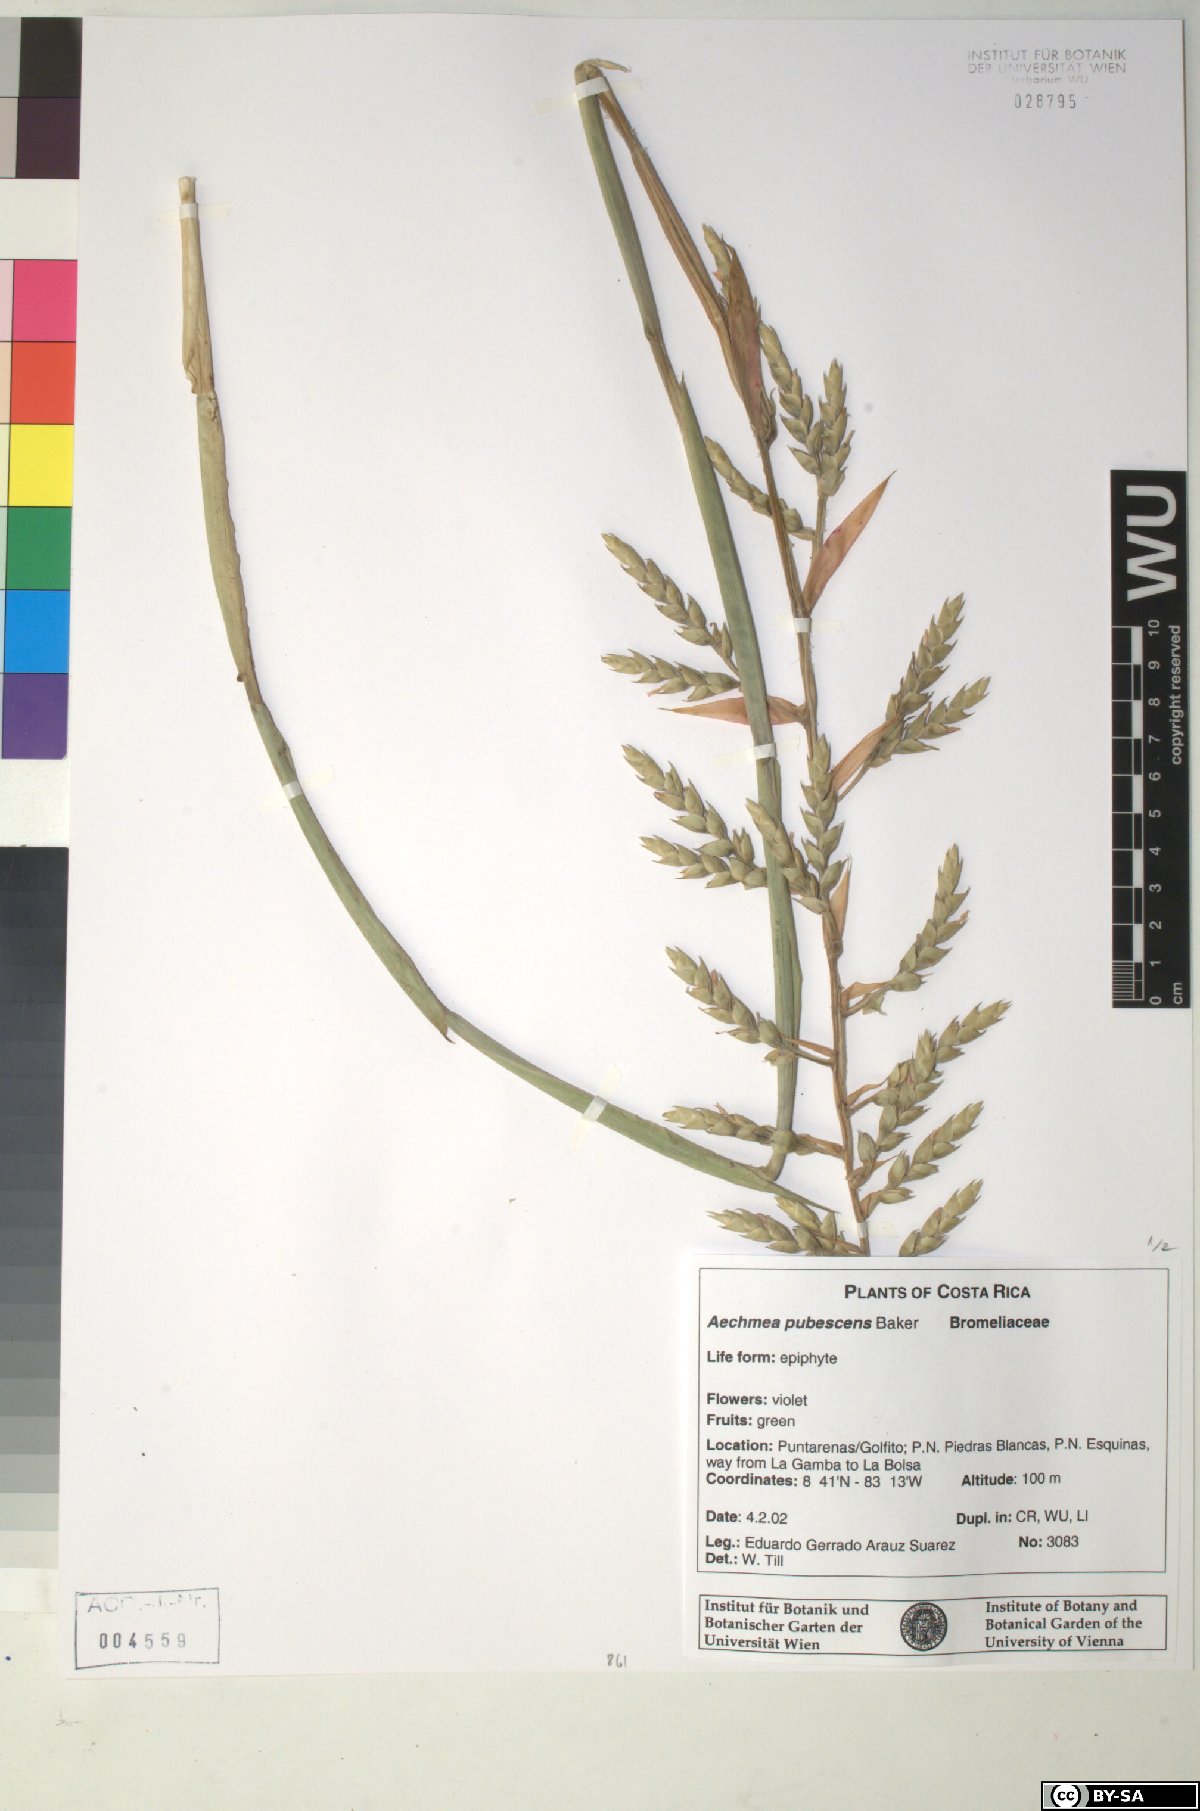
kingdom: Plantae
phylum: Tracheophyta
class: Liliopsida
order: Poales
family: Bromeliaceae
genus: Aechmea
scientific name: Aechmea pubescens
